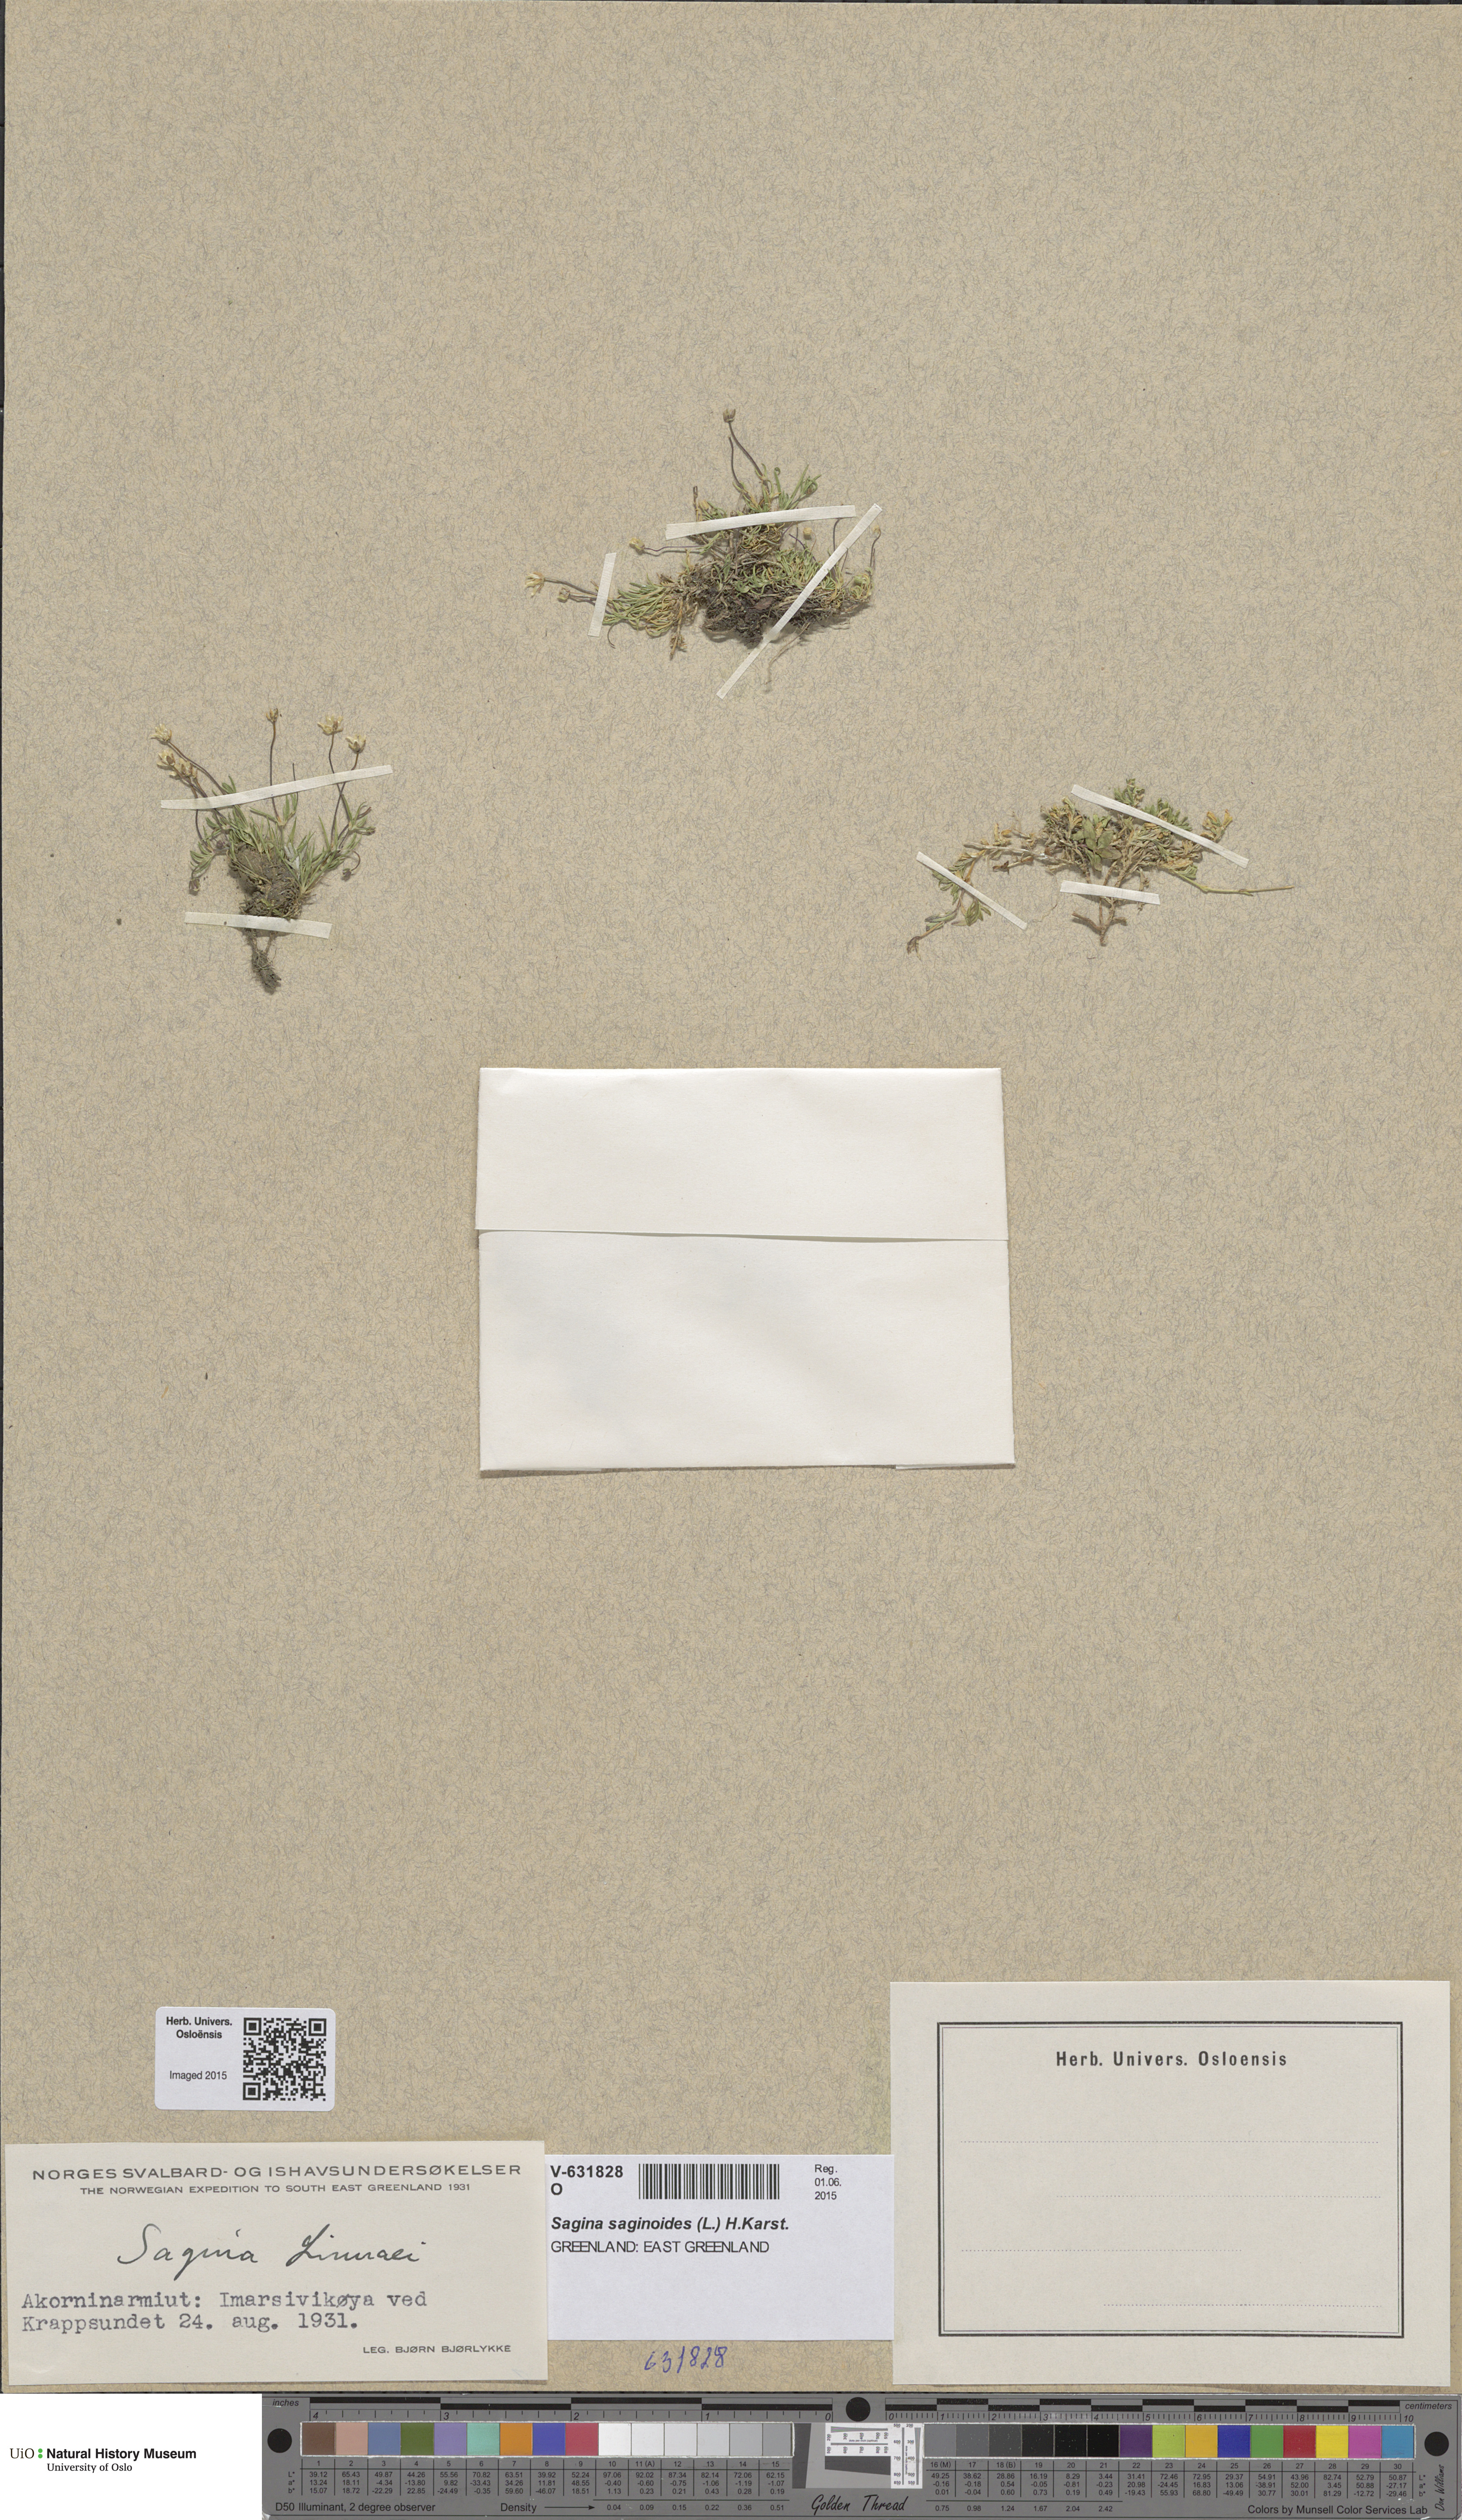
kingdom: Plantae
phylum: Tracheophyta
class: Magnoliopsida
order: Caryophyllales
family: Caryophyllaceae
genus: Sagina
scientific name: Sagina saginoides
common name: Alpine pearlwort
